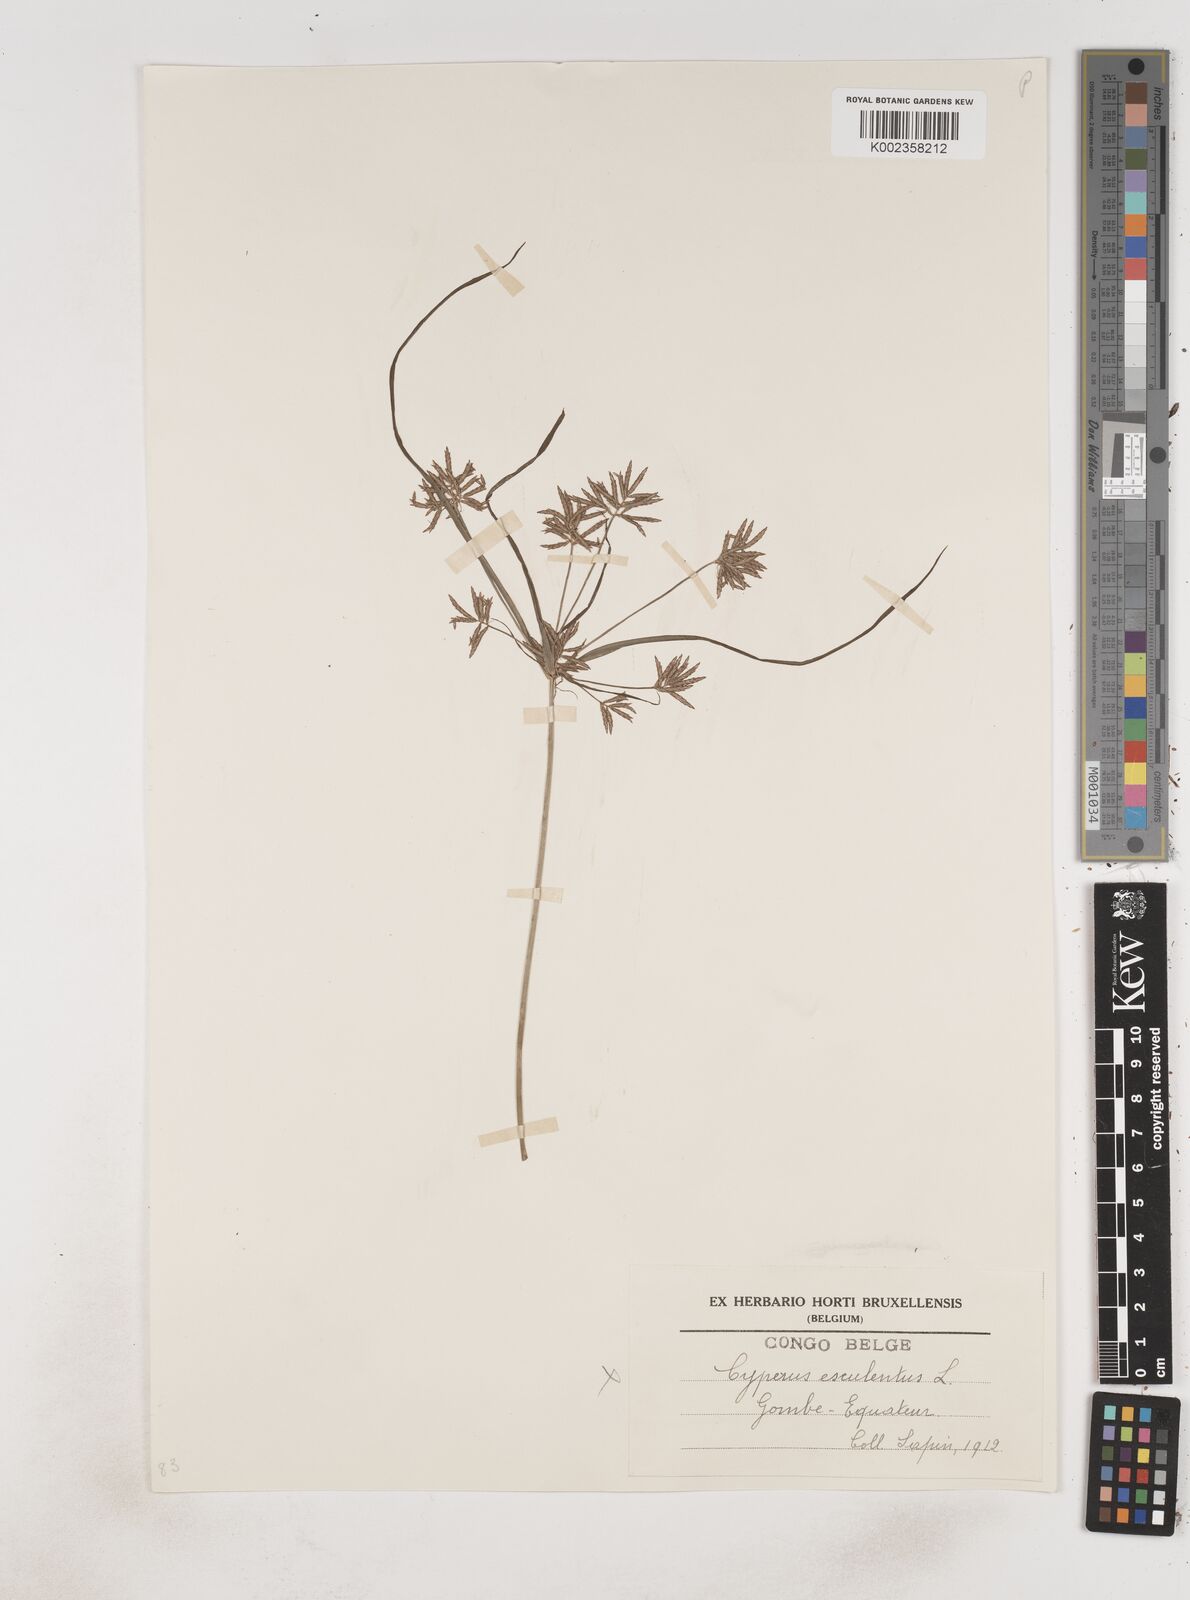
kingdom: Plantae
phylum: Tracheophyta
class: Liliopsida
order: Poales
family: Cyperaceae
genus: Cyperus
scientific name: Cyperus longus
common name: Galingale
